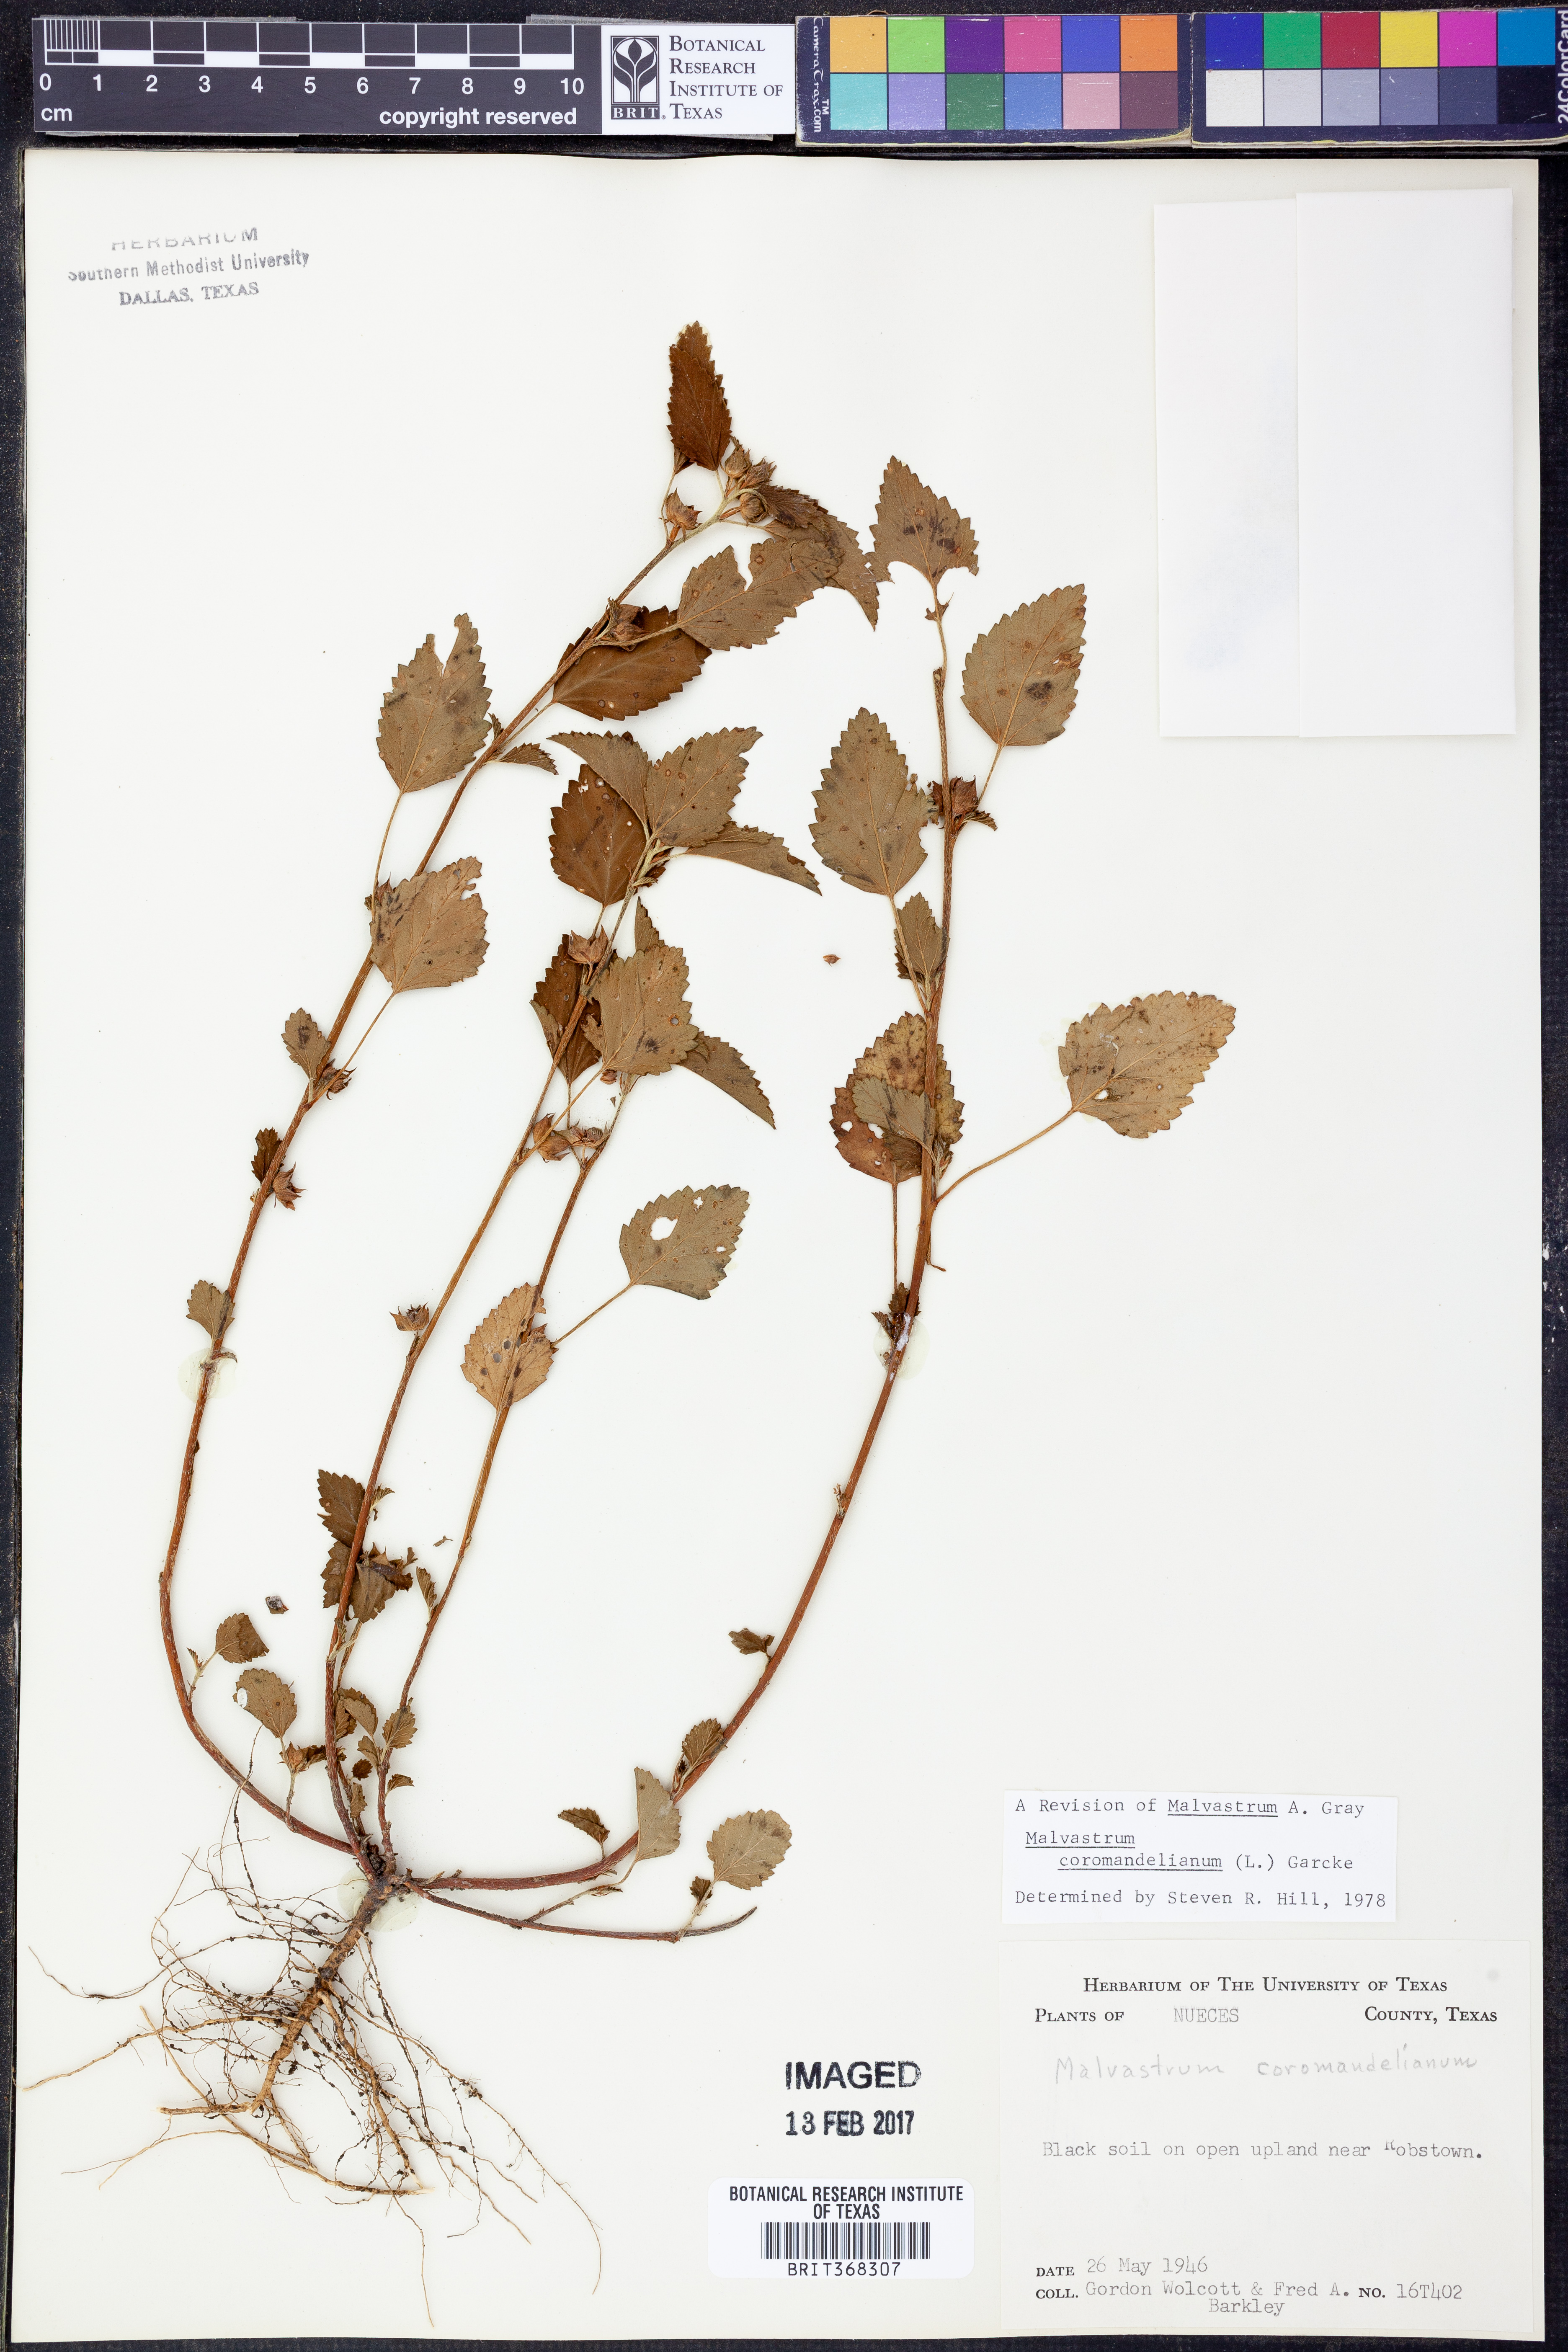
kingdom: Plantae
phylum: Tracheophyta
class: Magnoliopsida
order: Malvales
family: Malvaceae
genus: Malvastrum
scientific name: Malvastrum coromandelianum
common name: Threelobe false mallow
